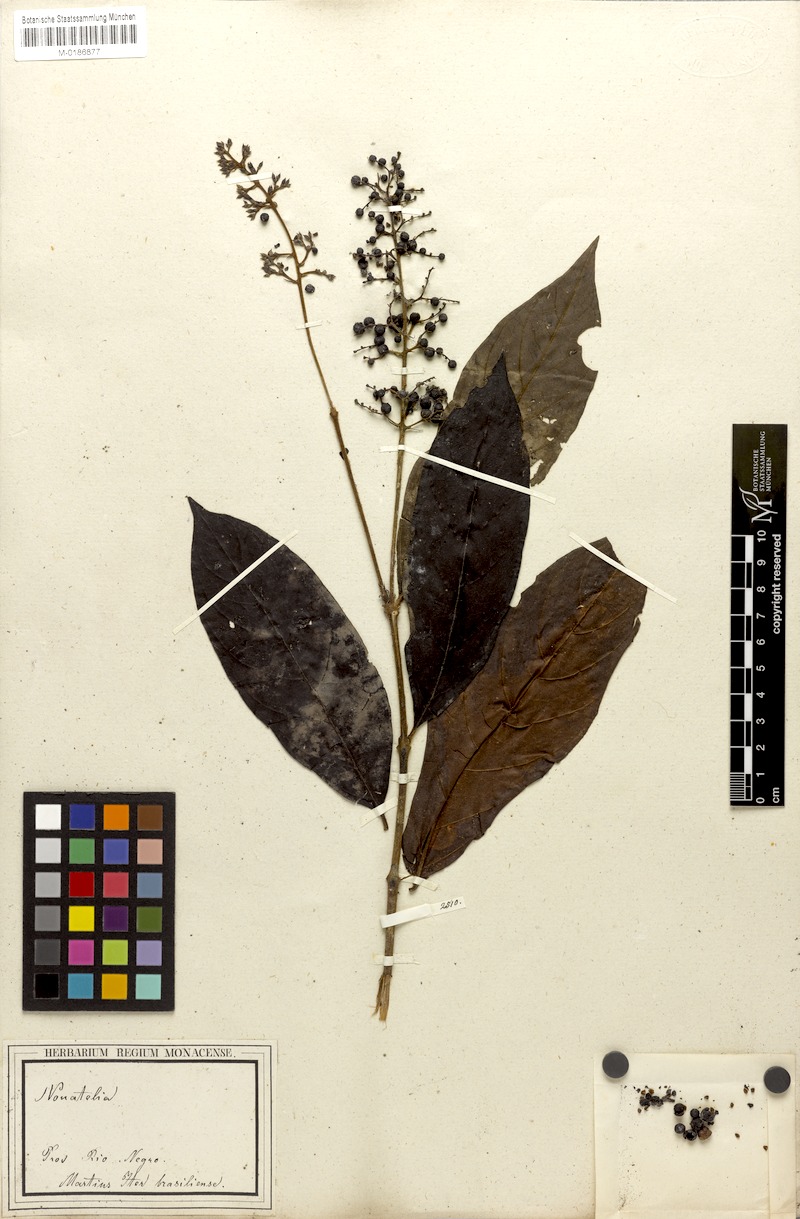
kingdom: Plantae
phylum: Tracheophyta
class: Magnoliopsida
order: Gentianales
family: Rubiaceae
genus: Bertiera
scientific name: Bertiera guianensis
